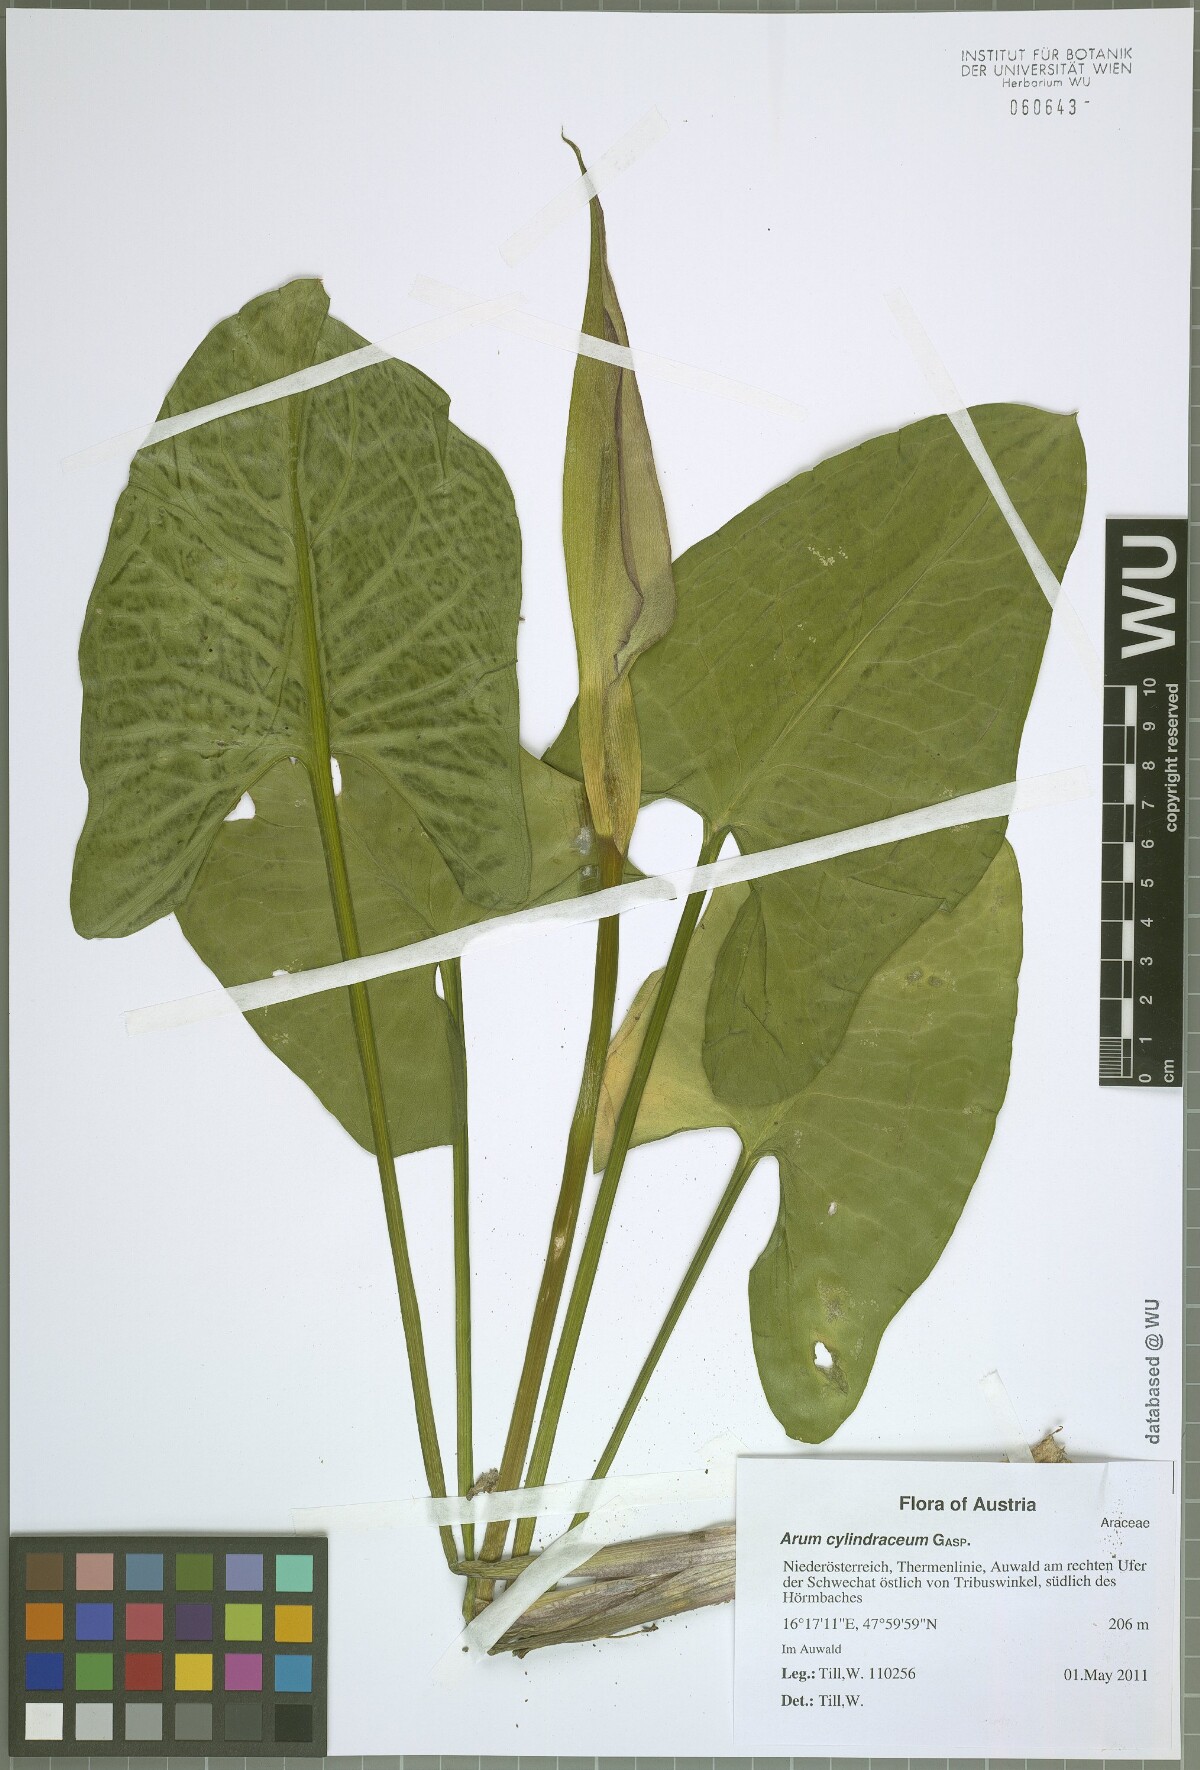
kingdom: Plantae
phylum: Tracheophyta
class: Liliopsida
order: Alismatales
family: Araceae
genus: Arum
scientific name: Arum cylindraceum
